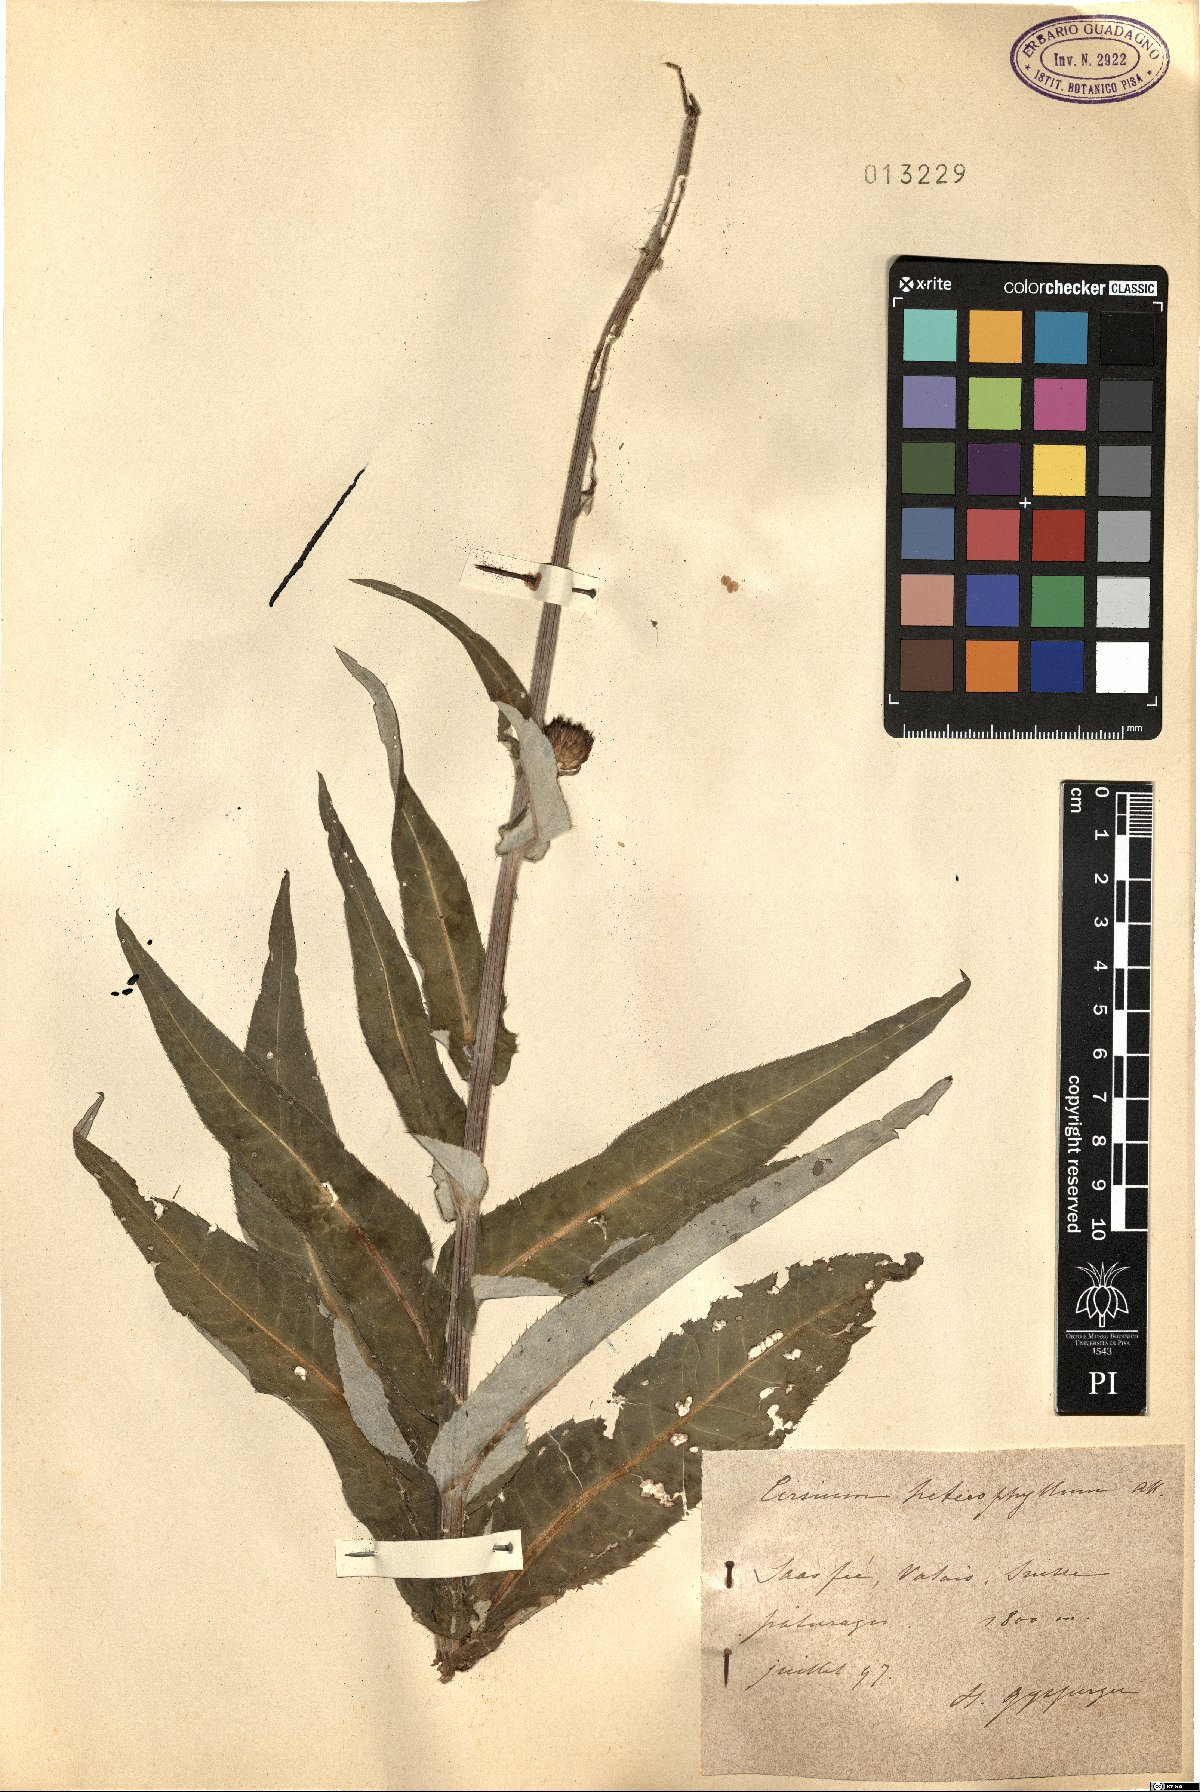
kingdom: Plantae
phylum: Tracheophyta
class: Magnoliopsida
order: Asterales
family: Asteraceae
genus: Cirsium
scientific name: Cirsium heterophyllum
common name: Melancholy thistle
